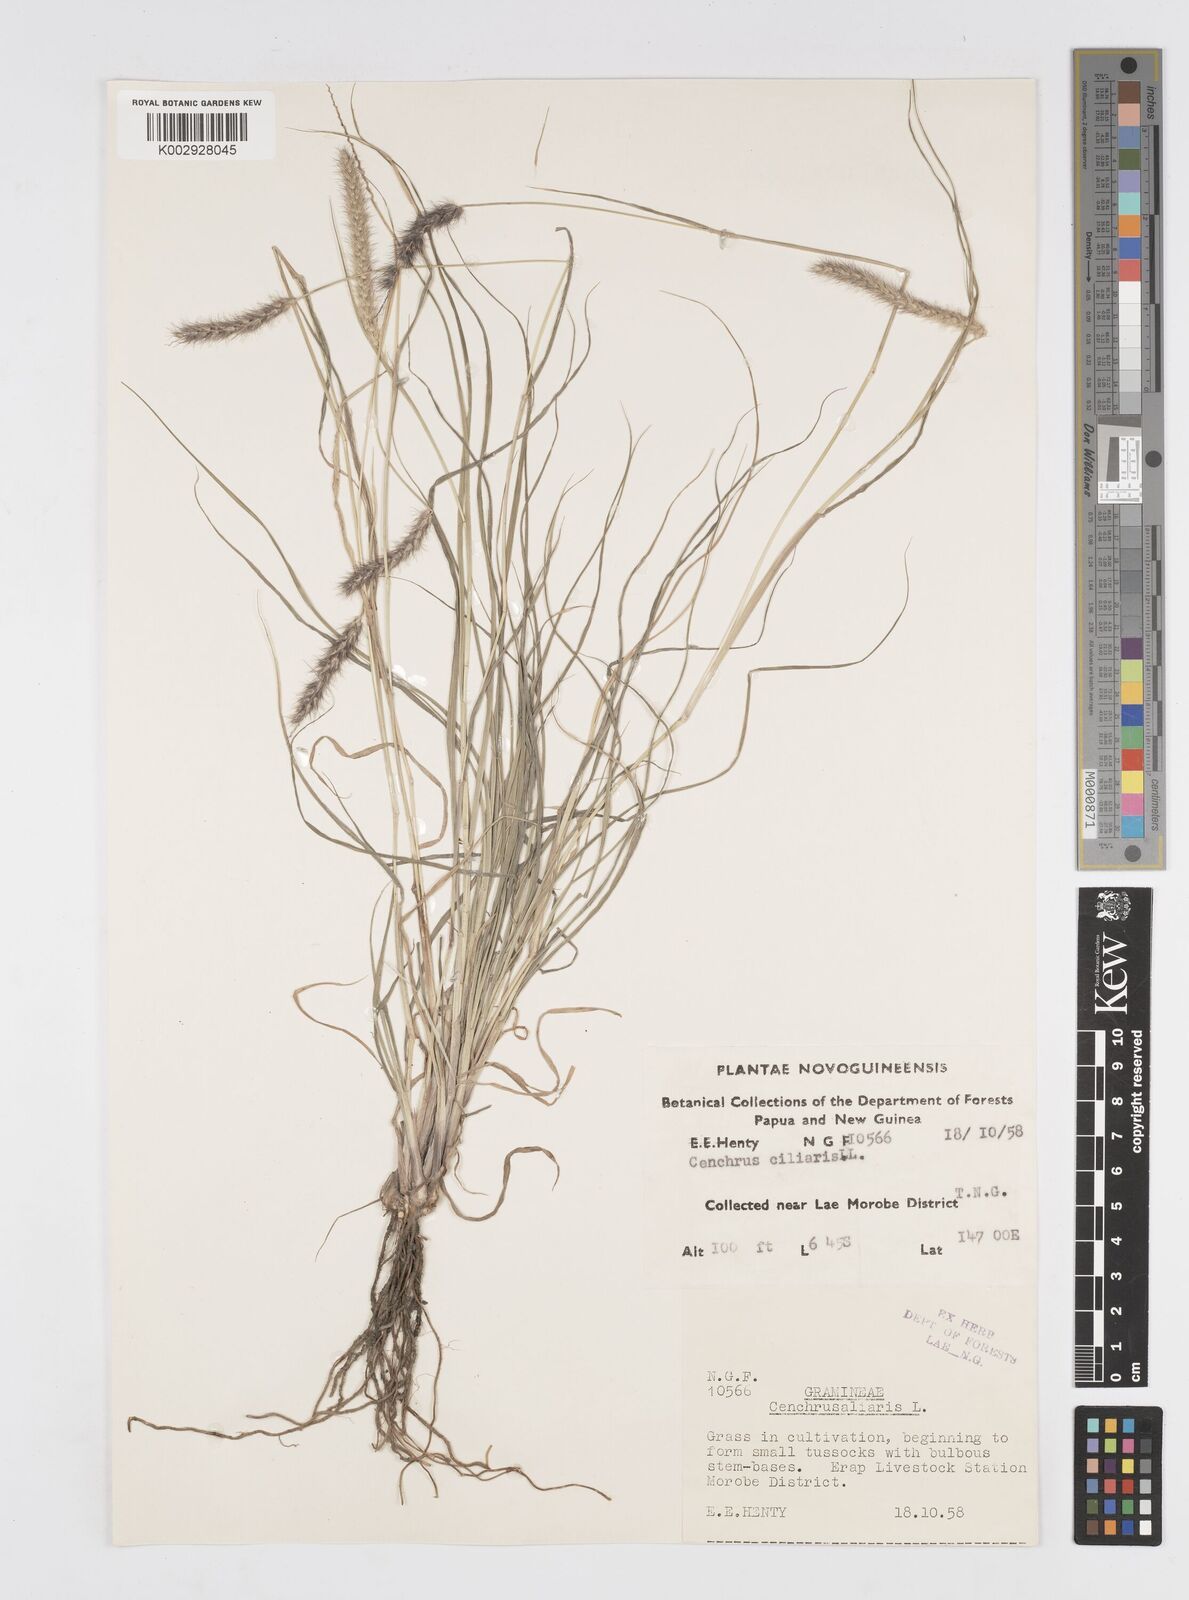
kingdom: Plantae
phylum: Tracheophyta
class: Liliopsida
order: Poales
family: Poaceae
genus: Cenchrus
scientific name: Cenchrus ciliaris
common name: Buffelgrass
